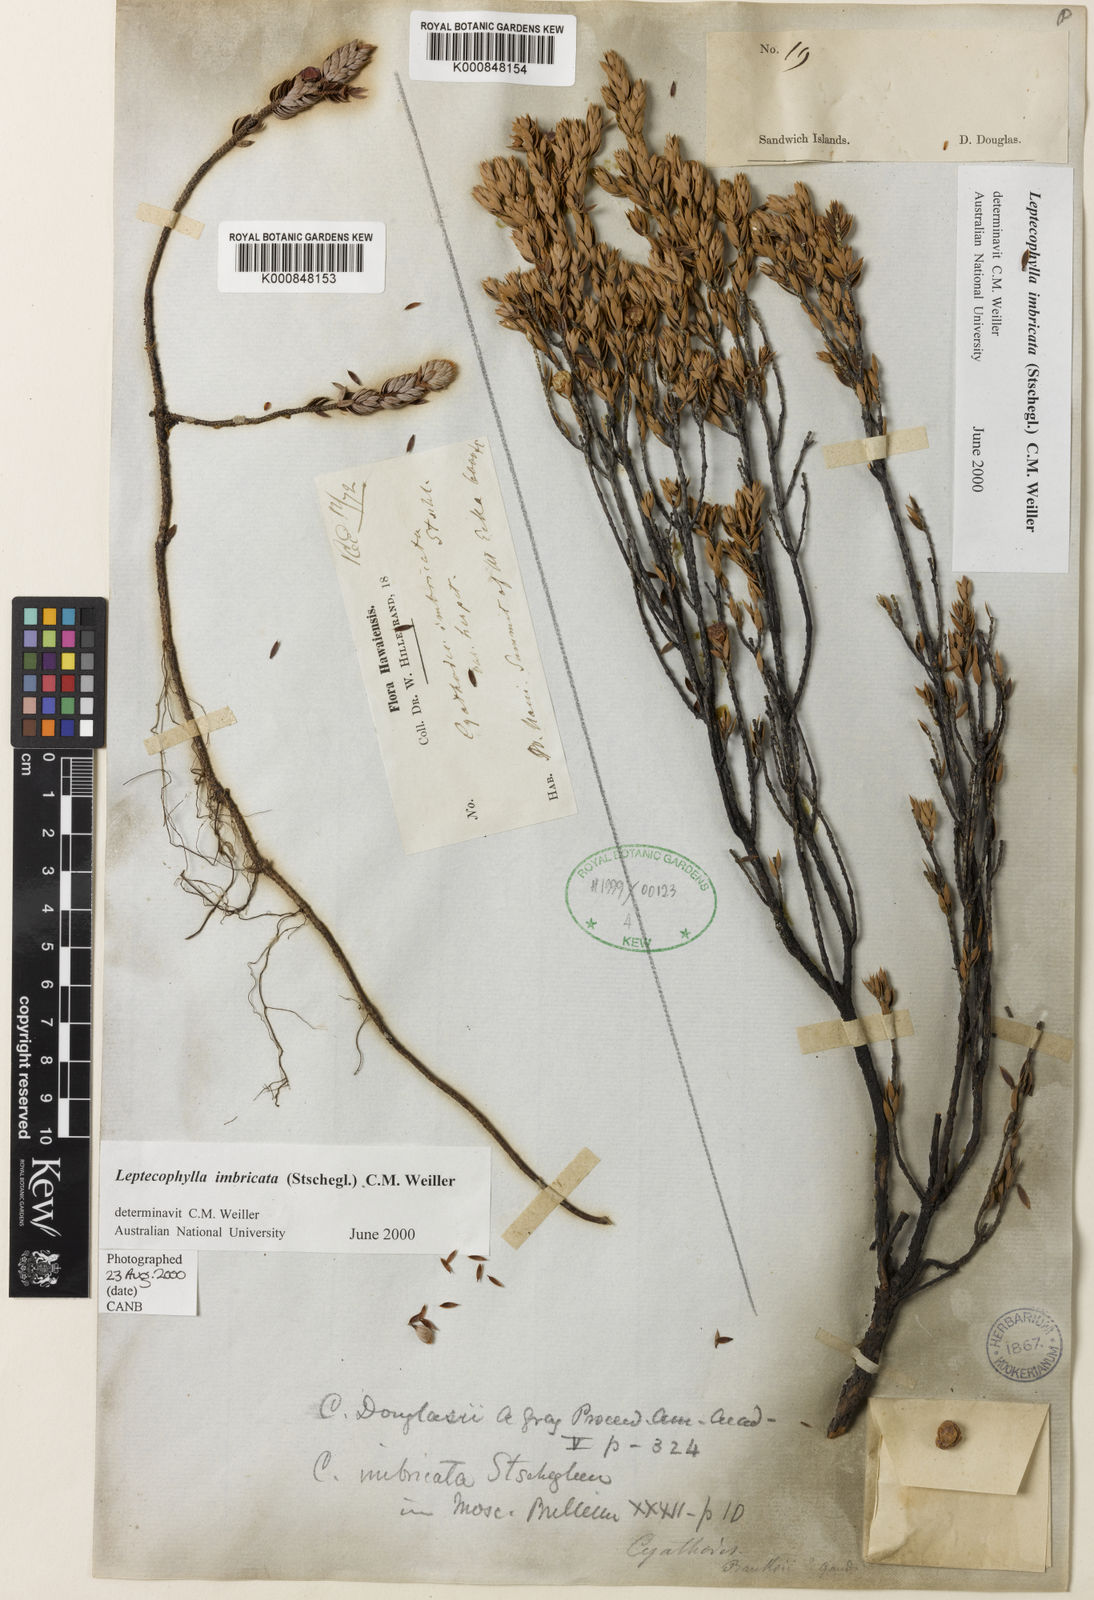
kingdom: Plantae
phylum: Tracheophyta
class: Magnoliopsida
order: Ericales
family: Ericaceae
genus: Leptecophylla
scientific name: Leptecophylla tameiameiae
